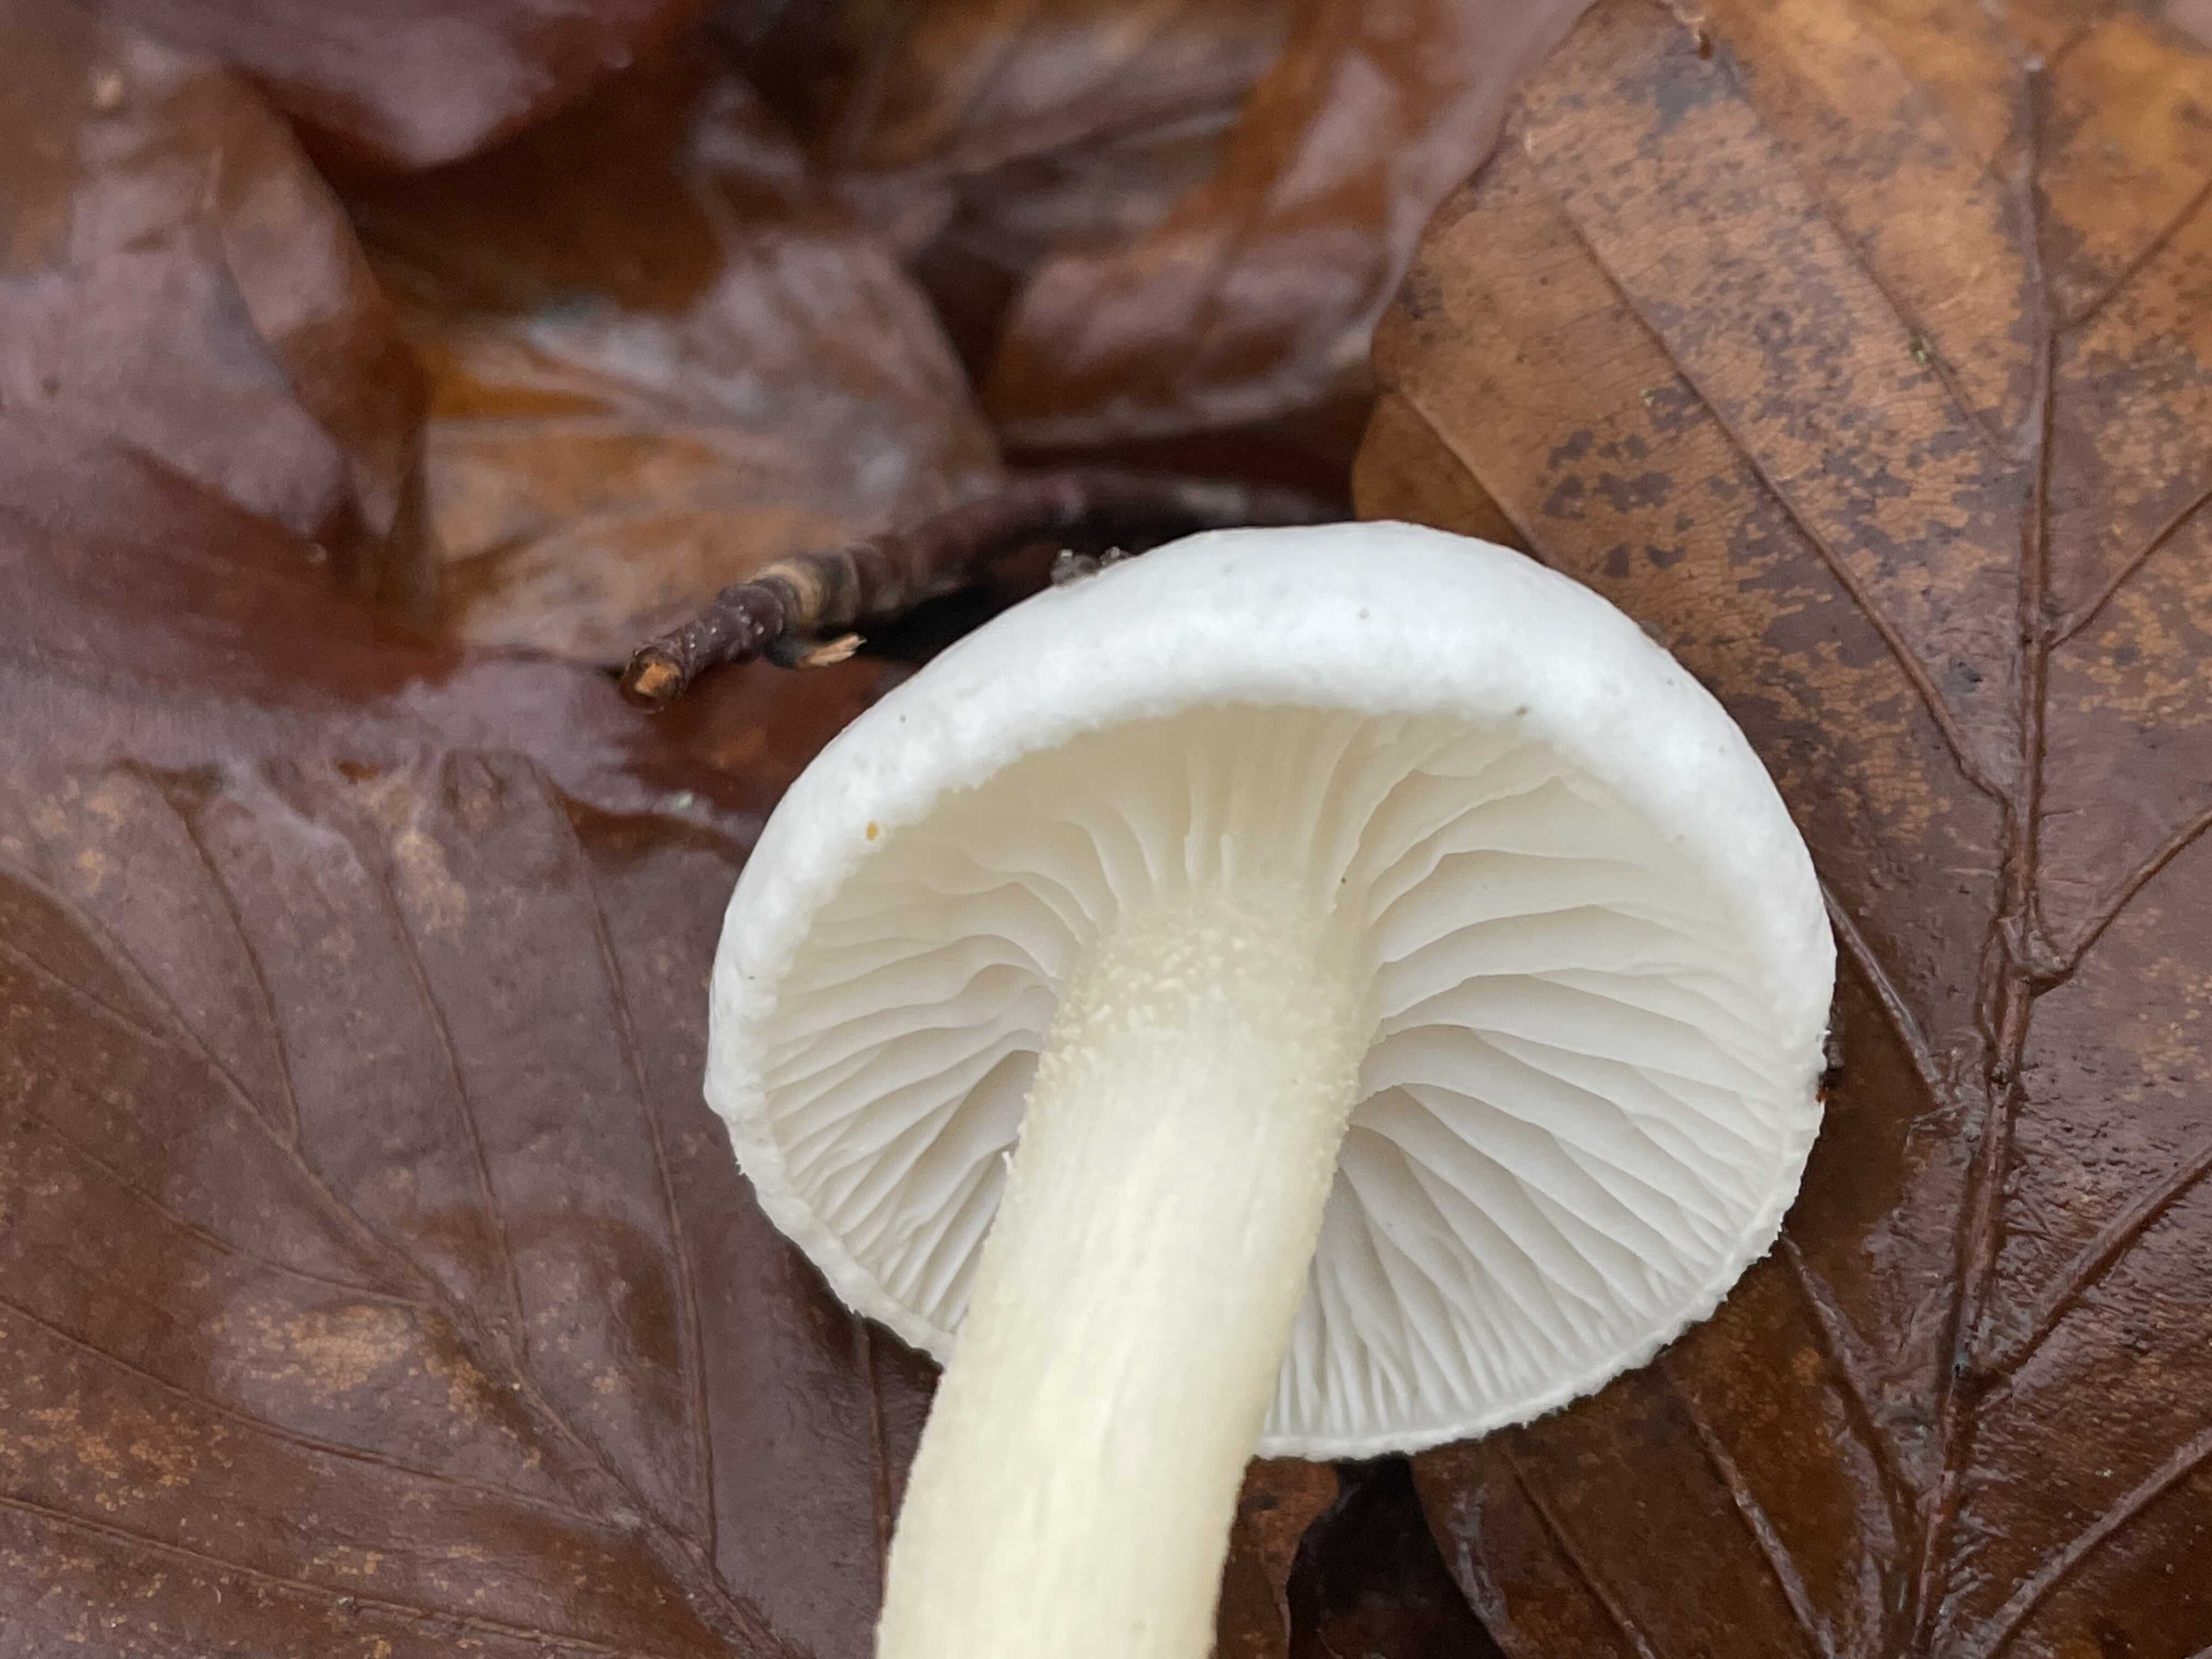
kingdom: Fungi
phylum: Basidiomycota
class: Agaricomycetes
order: Agaricales
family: Hygrophoraceae
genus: Hygrophorus
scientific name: Hygrophorus eburneus
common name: elfenbens-sneglehat
